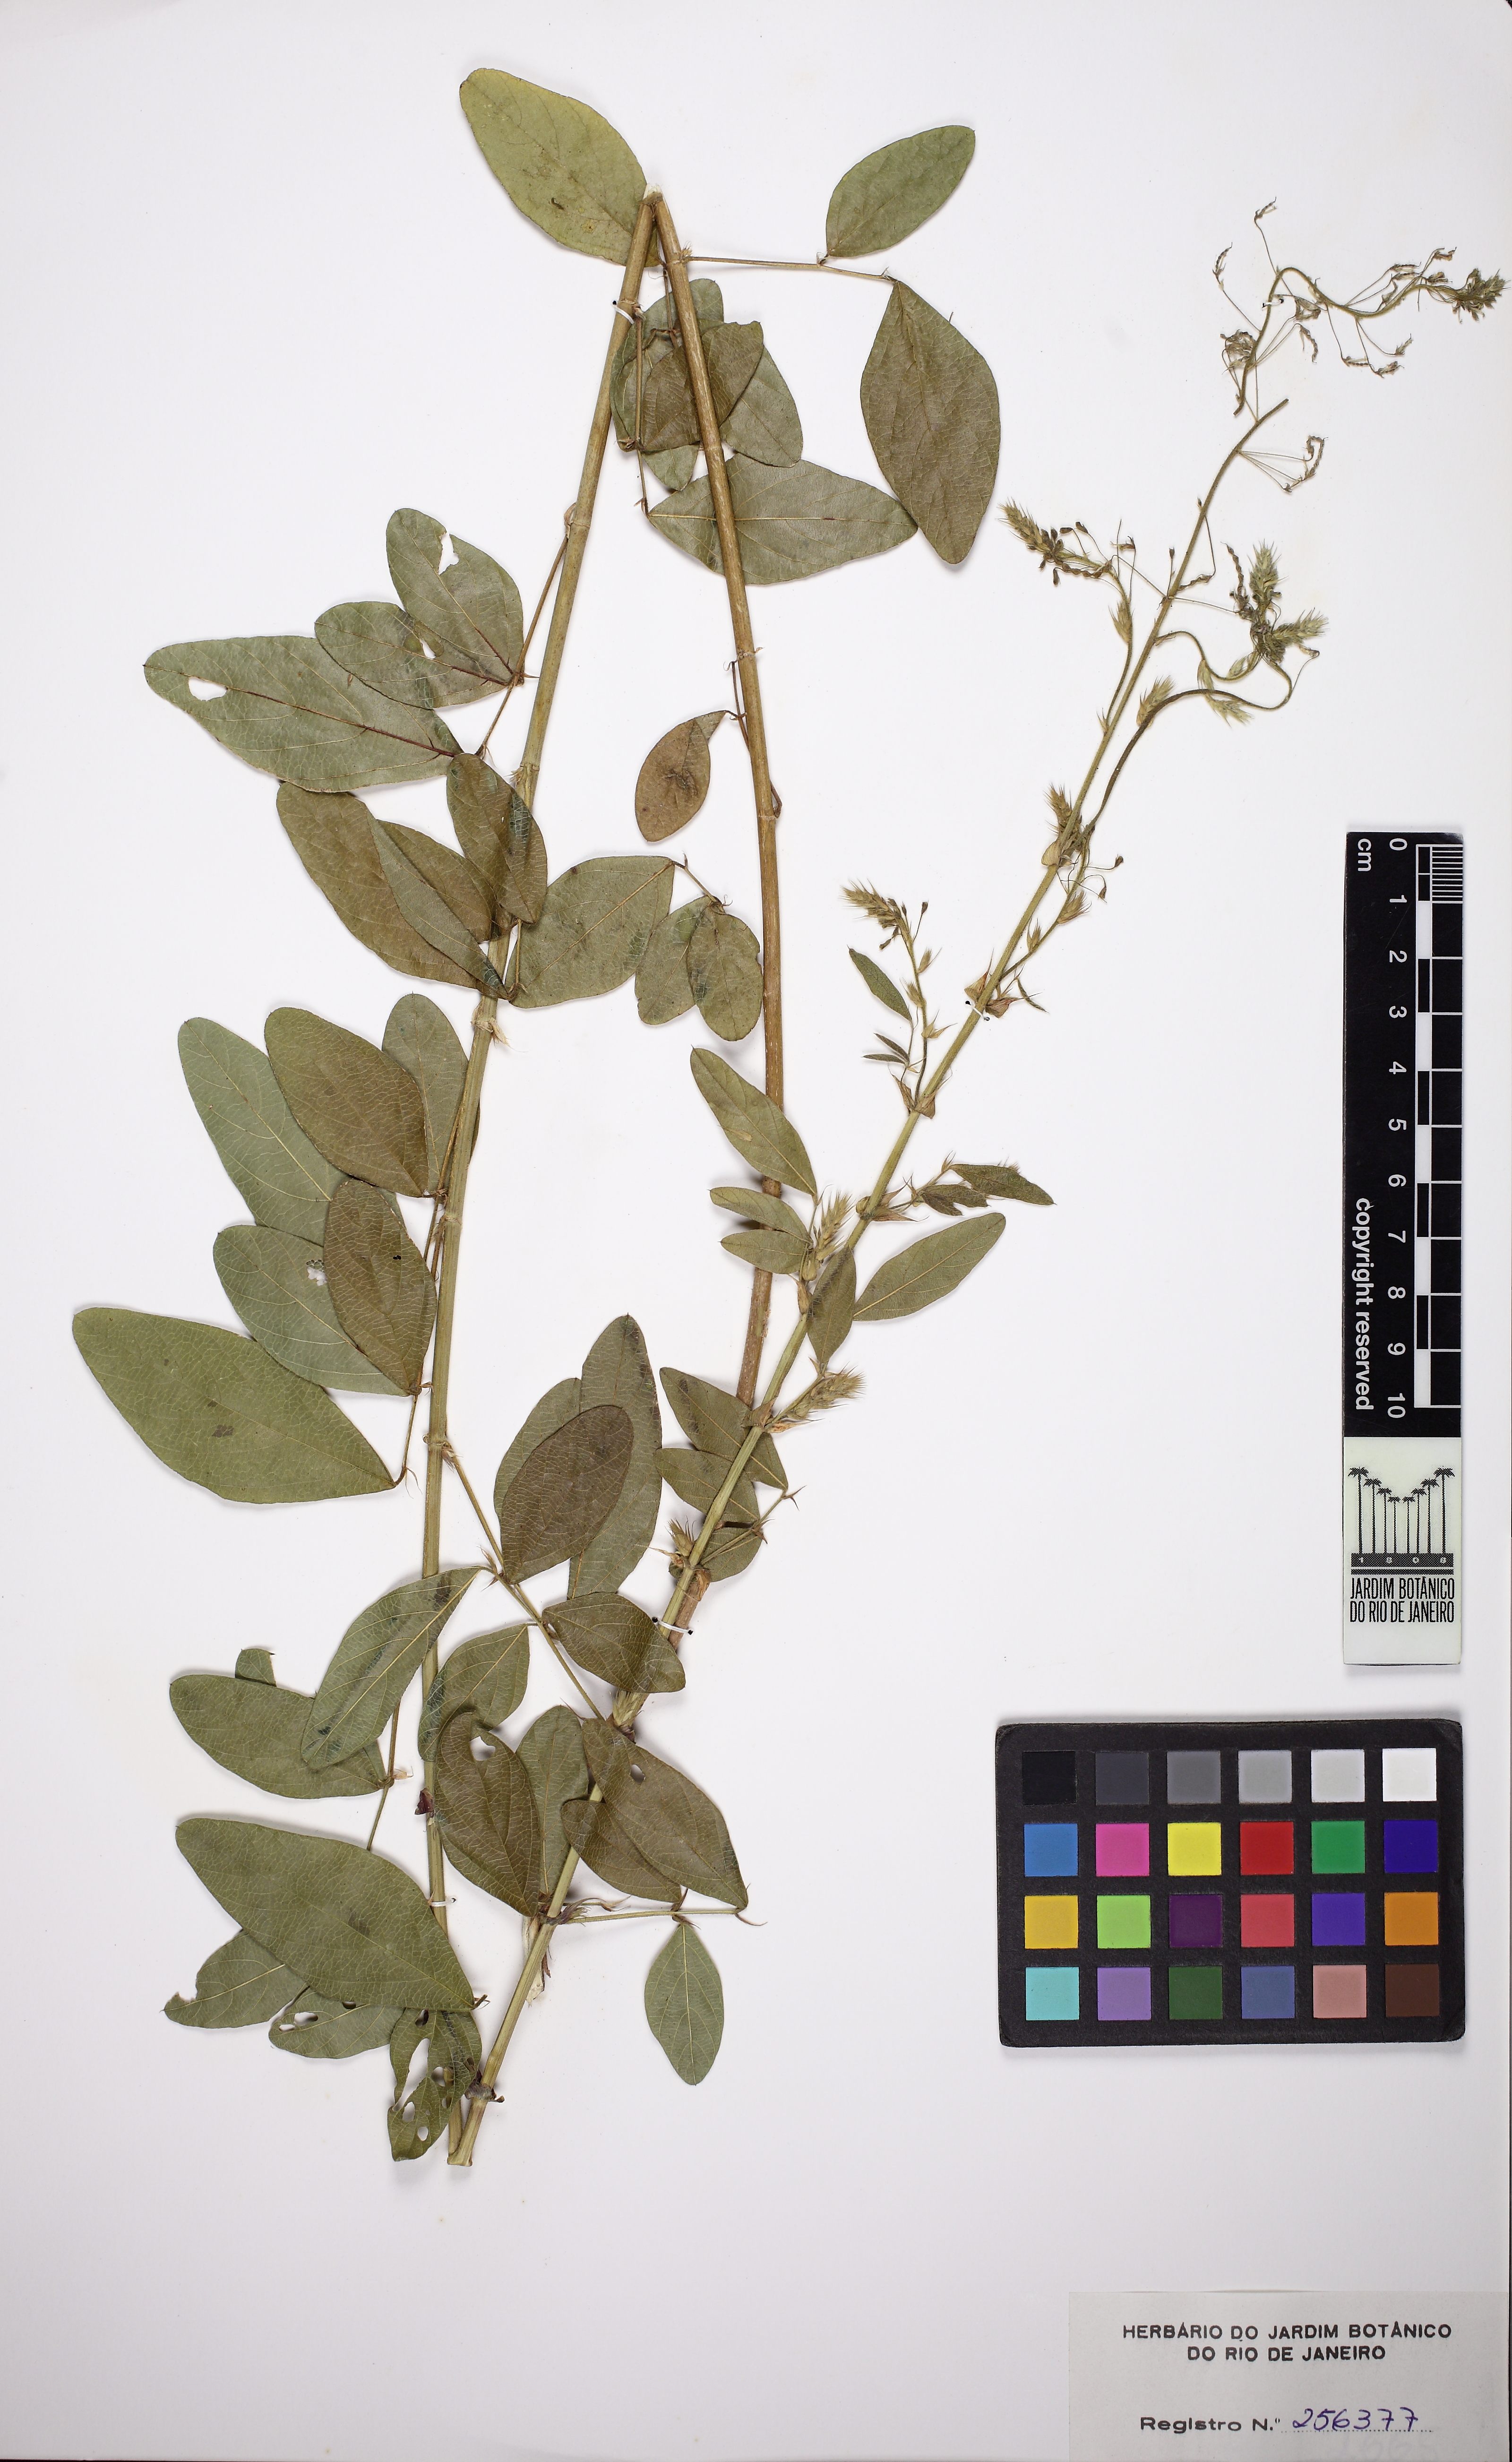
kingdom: Plantae
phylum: Tracheophyta
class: Magnoliopsida
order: Fabales
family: Fabaceae
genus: Desmodium
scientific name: Desmodium tortuosum
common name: Dixie ticktrefoil
